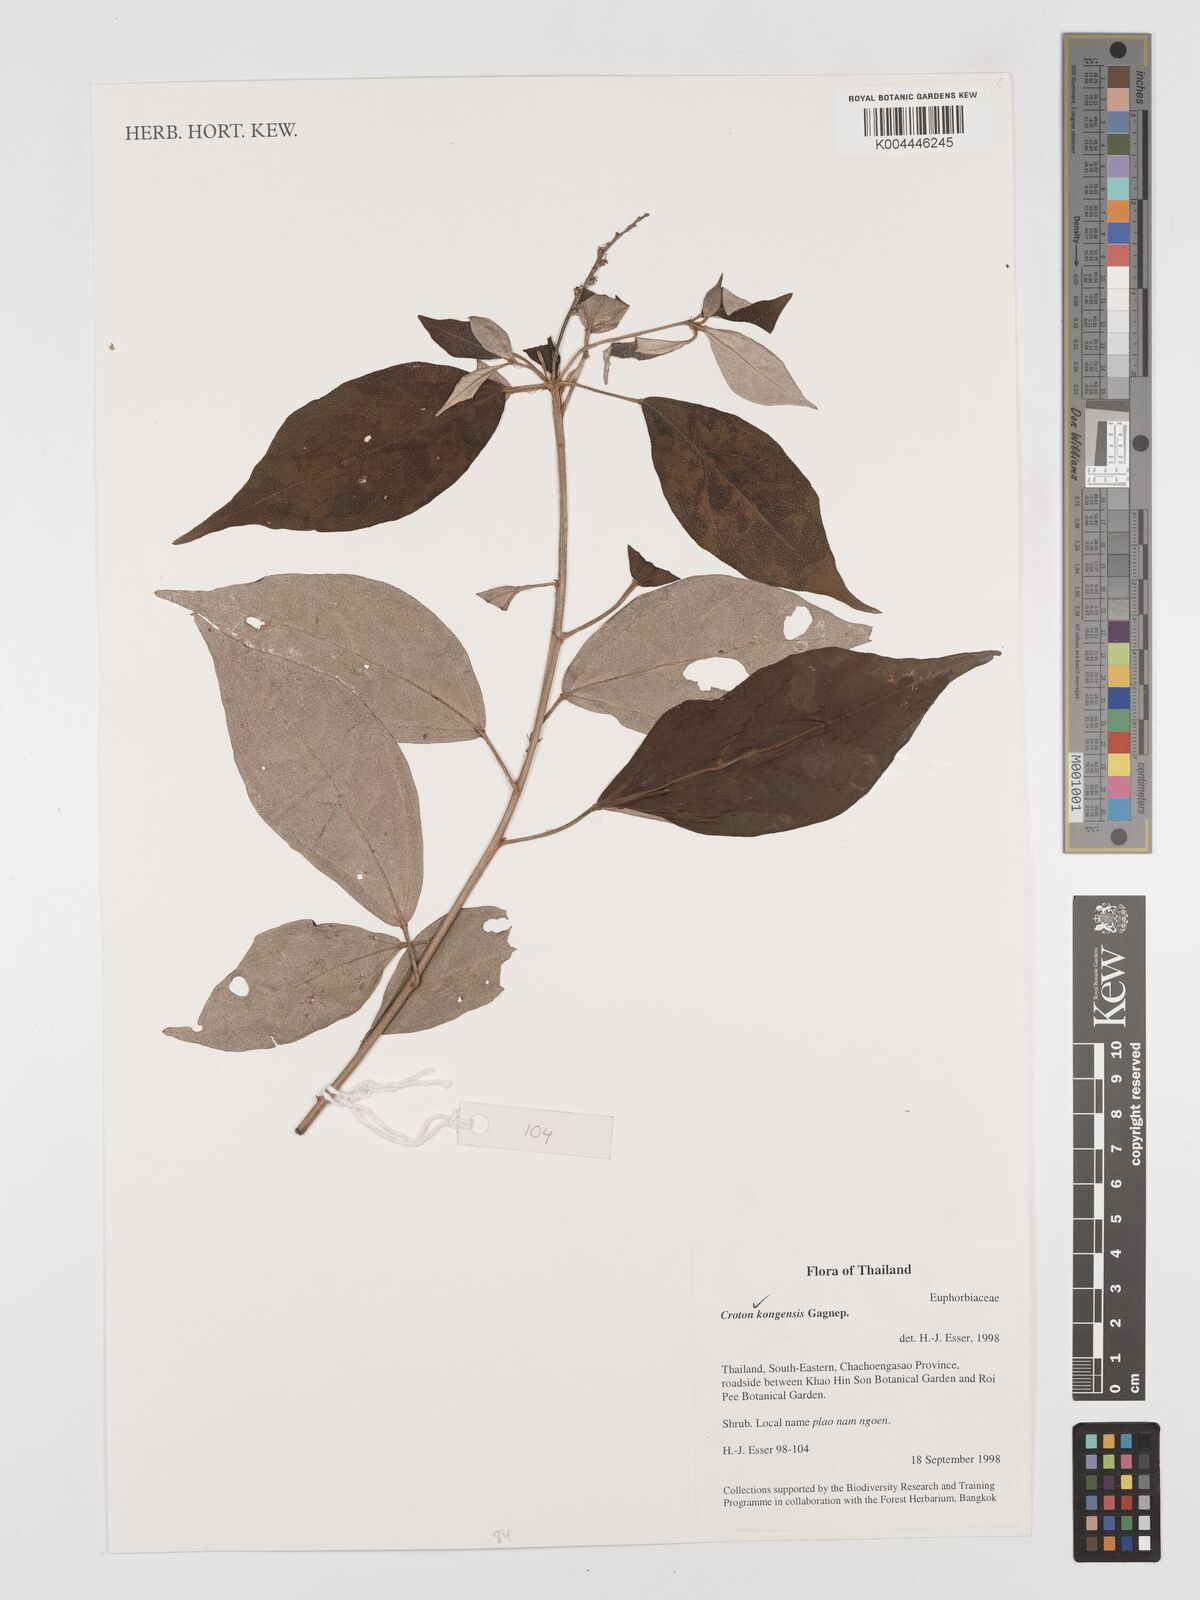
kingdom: Plantae
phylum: Tracheophyta
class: Magnoliopsida
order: Malpighiales
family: Euphorbiaceae
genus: Croton
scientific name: Croton kongensis
